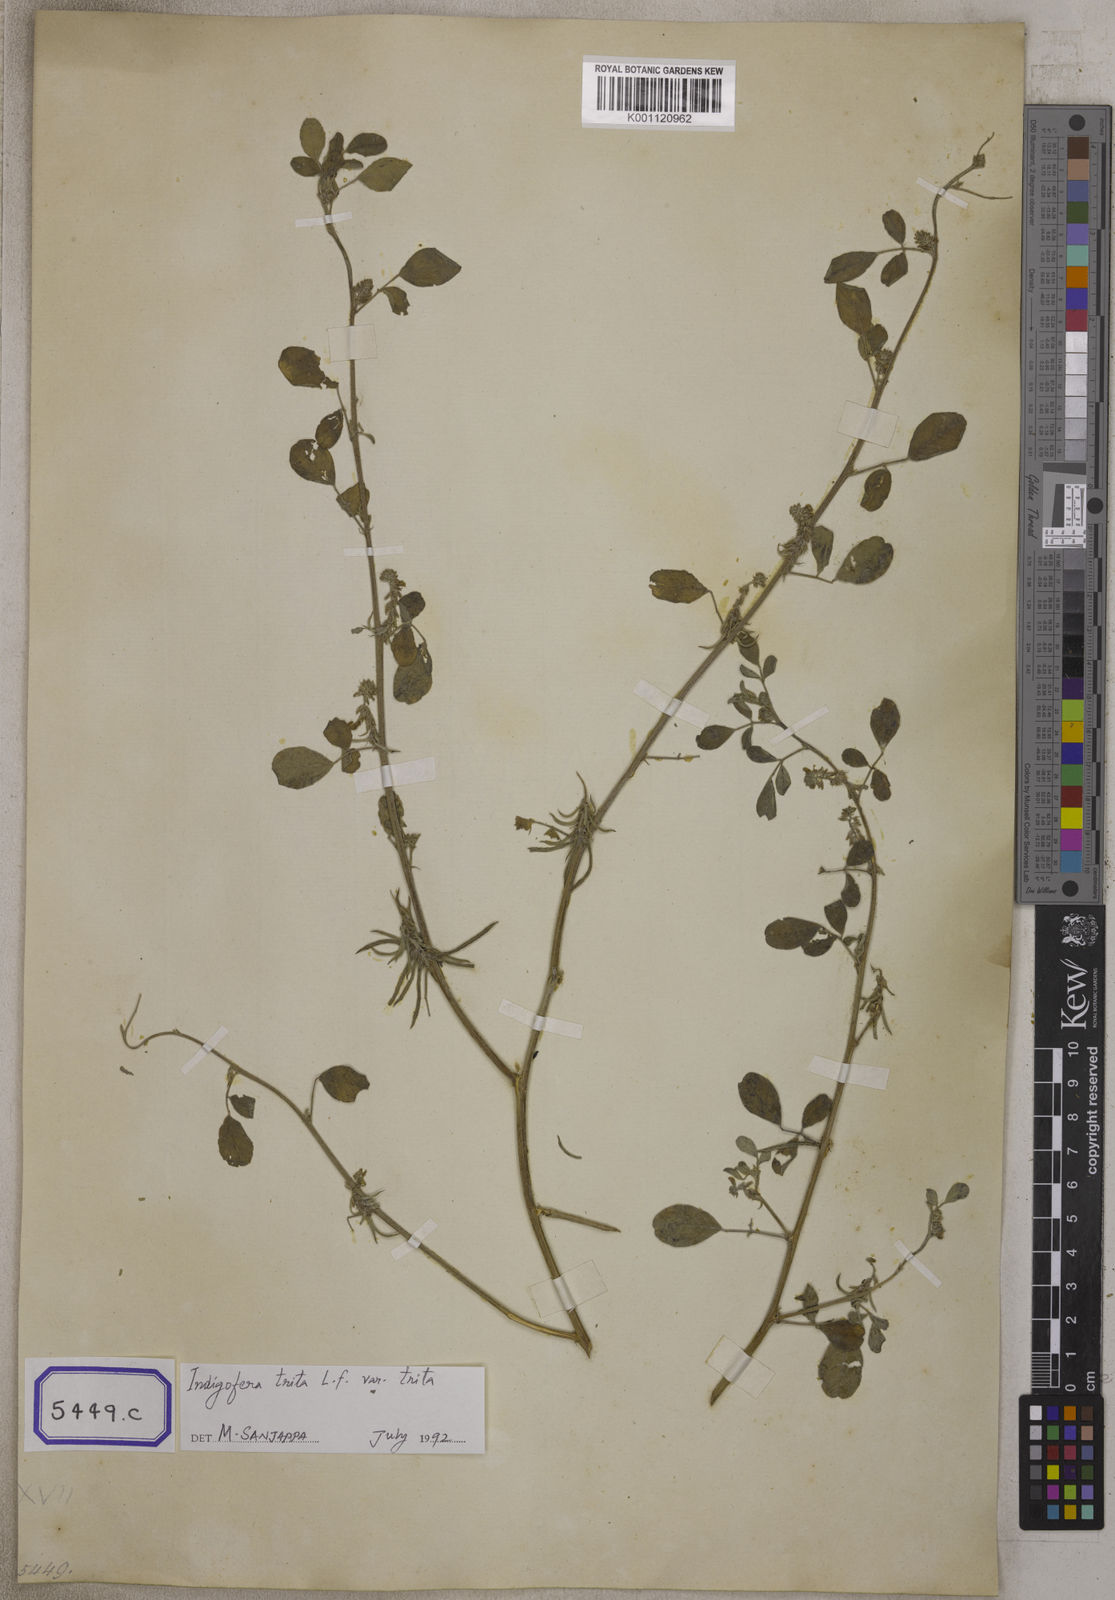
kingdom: Plantae
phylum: Tracheophyta
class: Magnoliopsida
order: Fabales
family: Fabaceae
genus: Indigofera
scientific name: Indigofera trita
